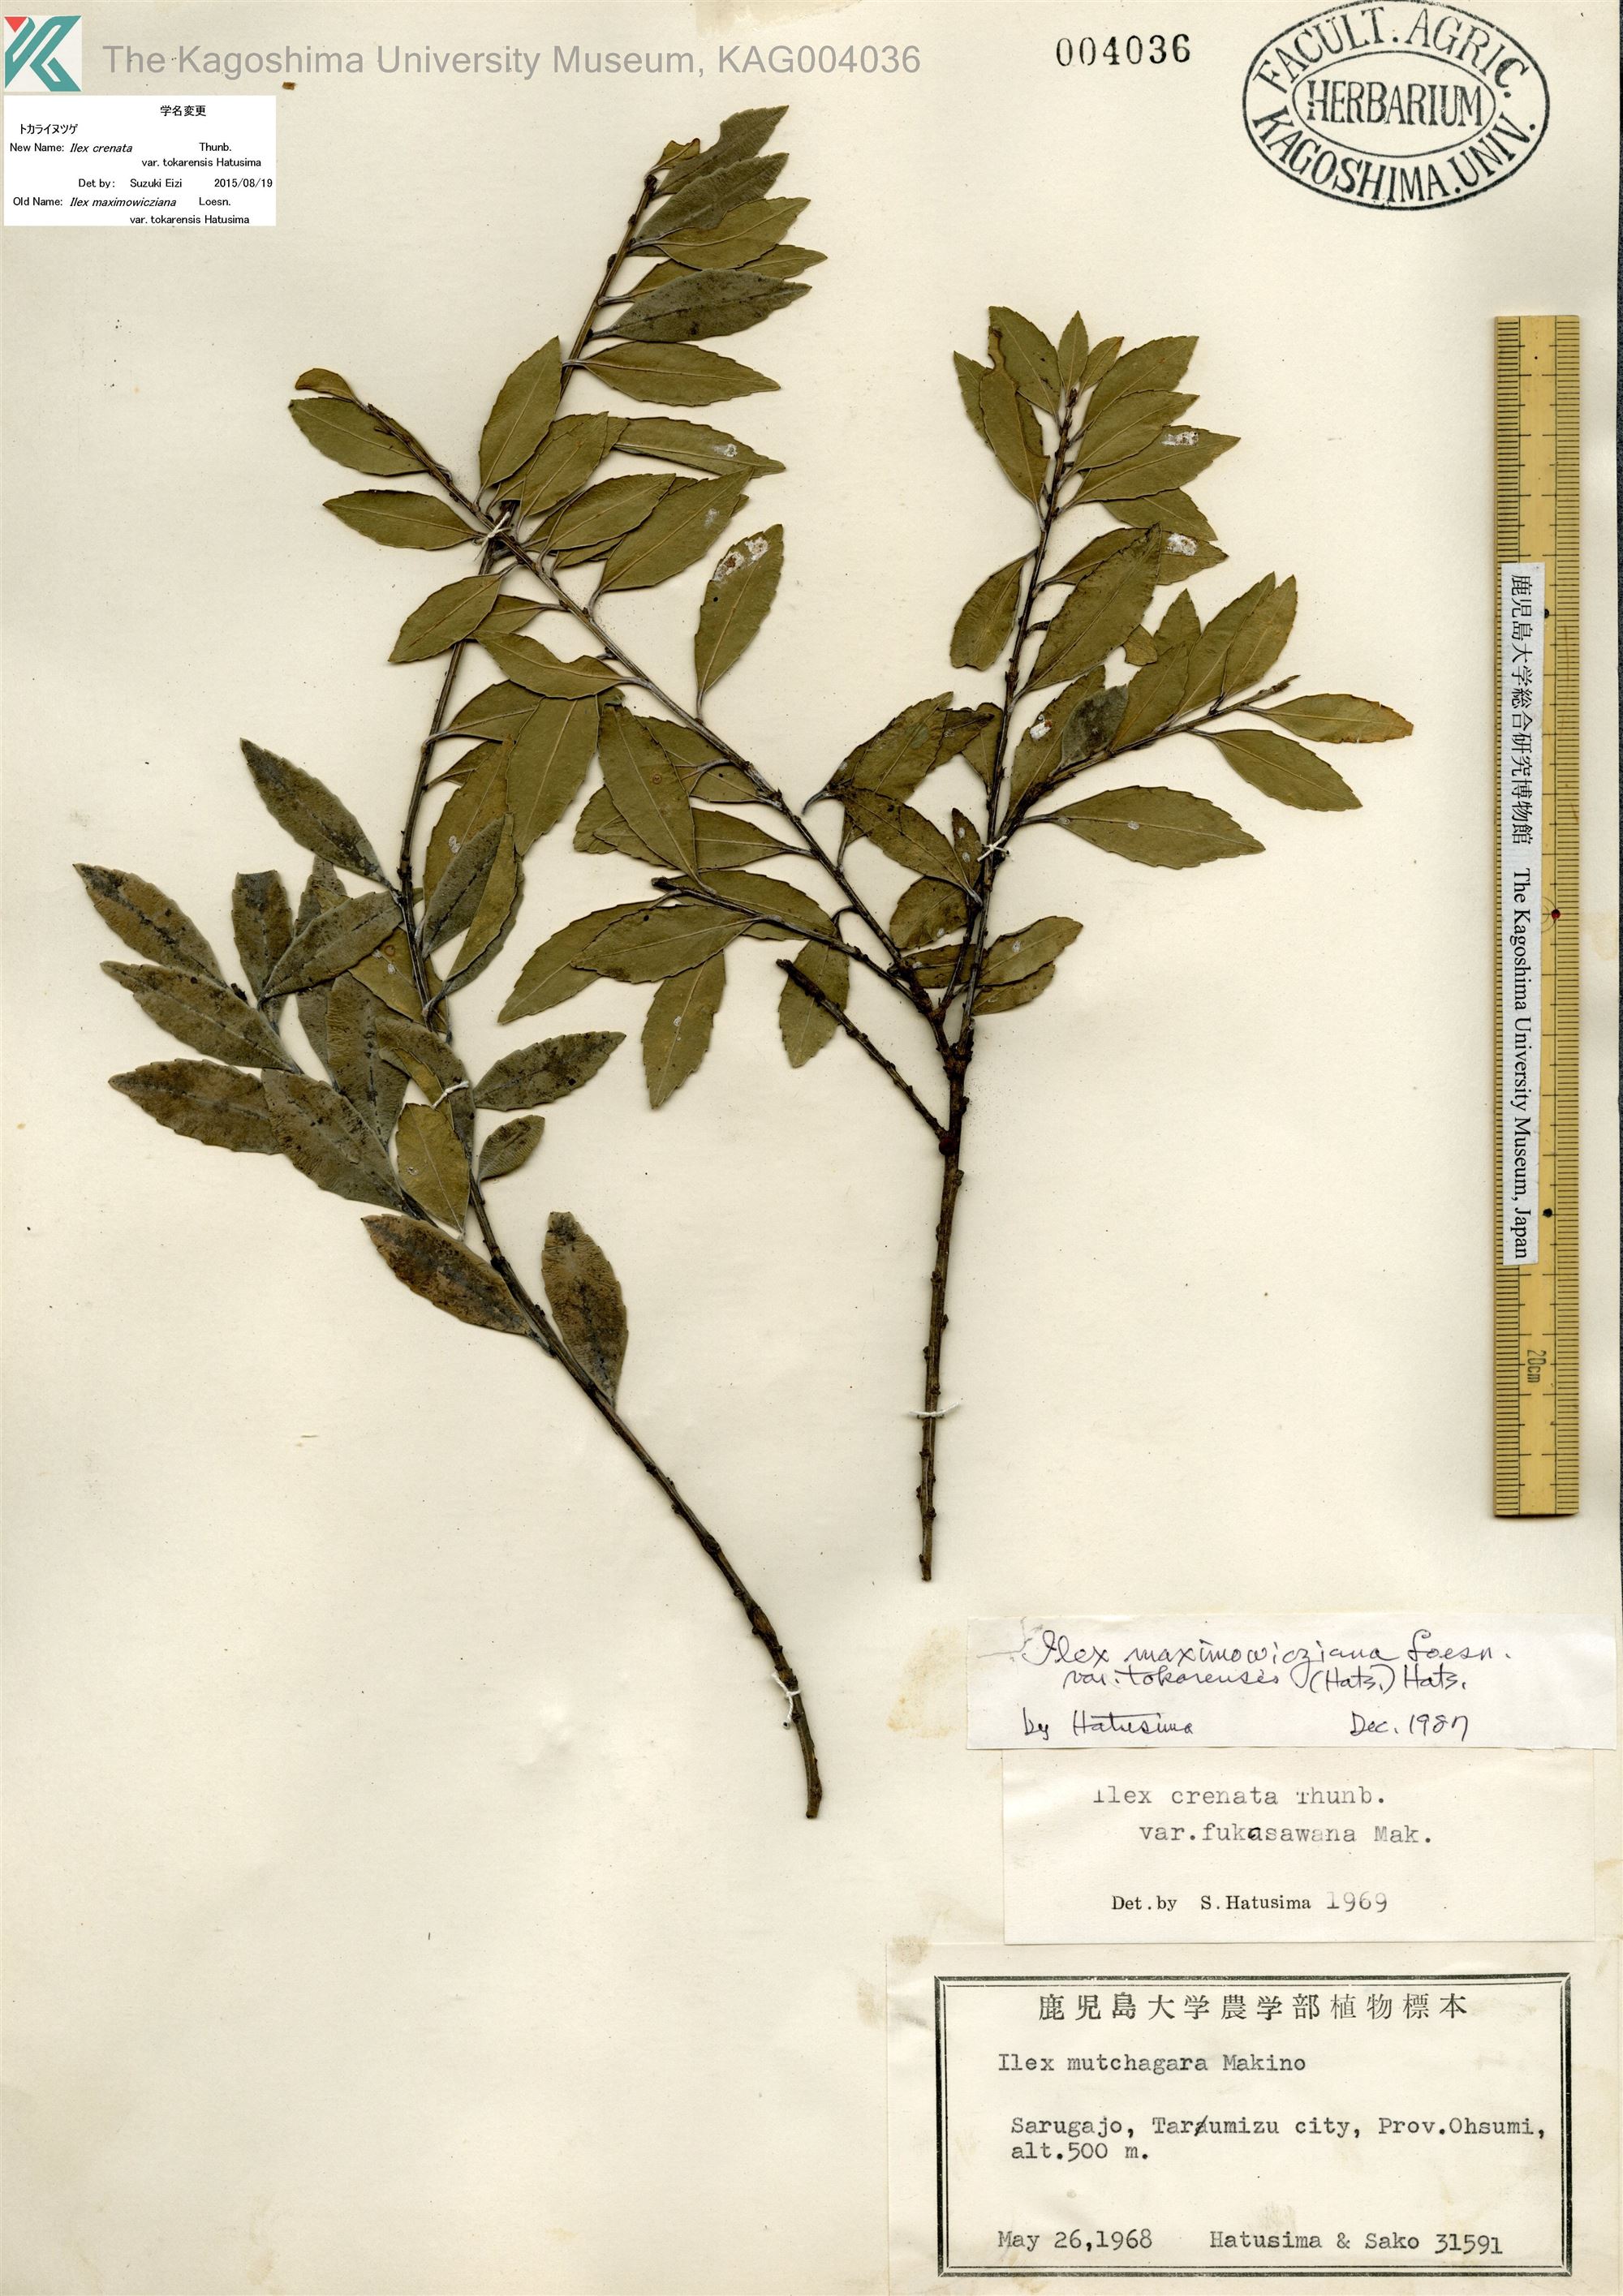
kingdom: Plantae
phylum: Tracheophyta
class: Magnoliopsida
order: Aquifoliales
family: Aquifoliaceae
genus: Ilex
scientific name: Ilex crenata
